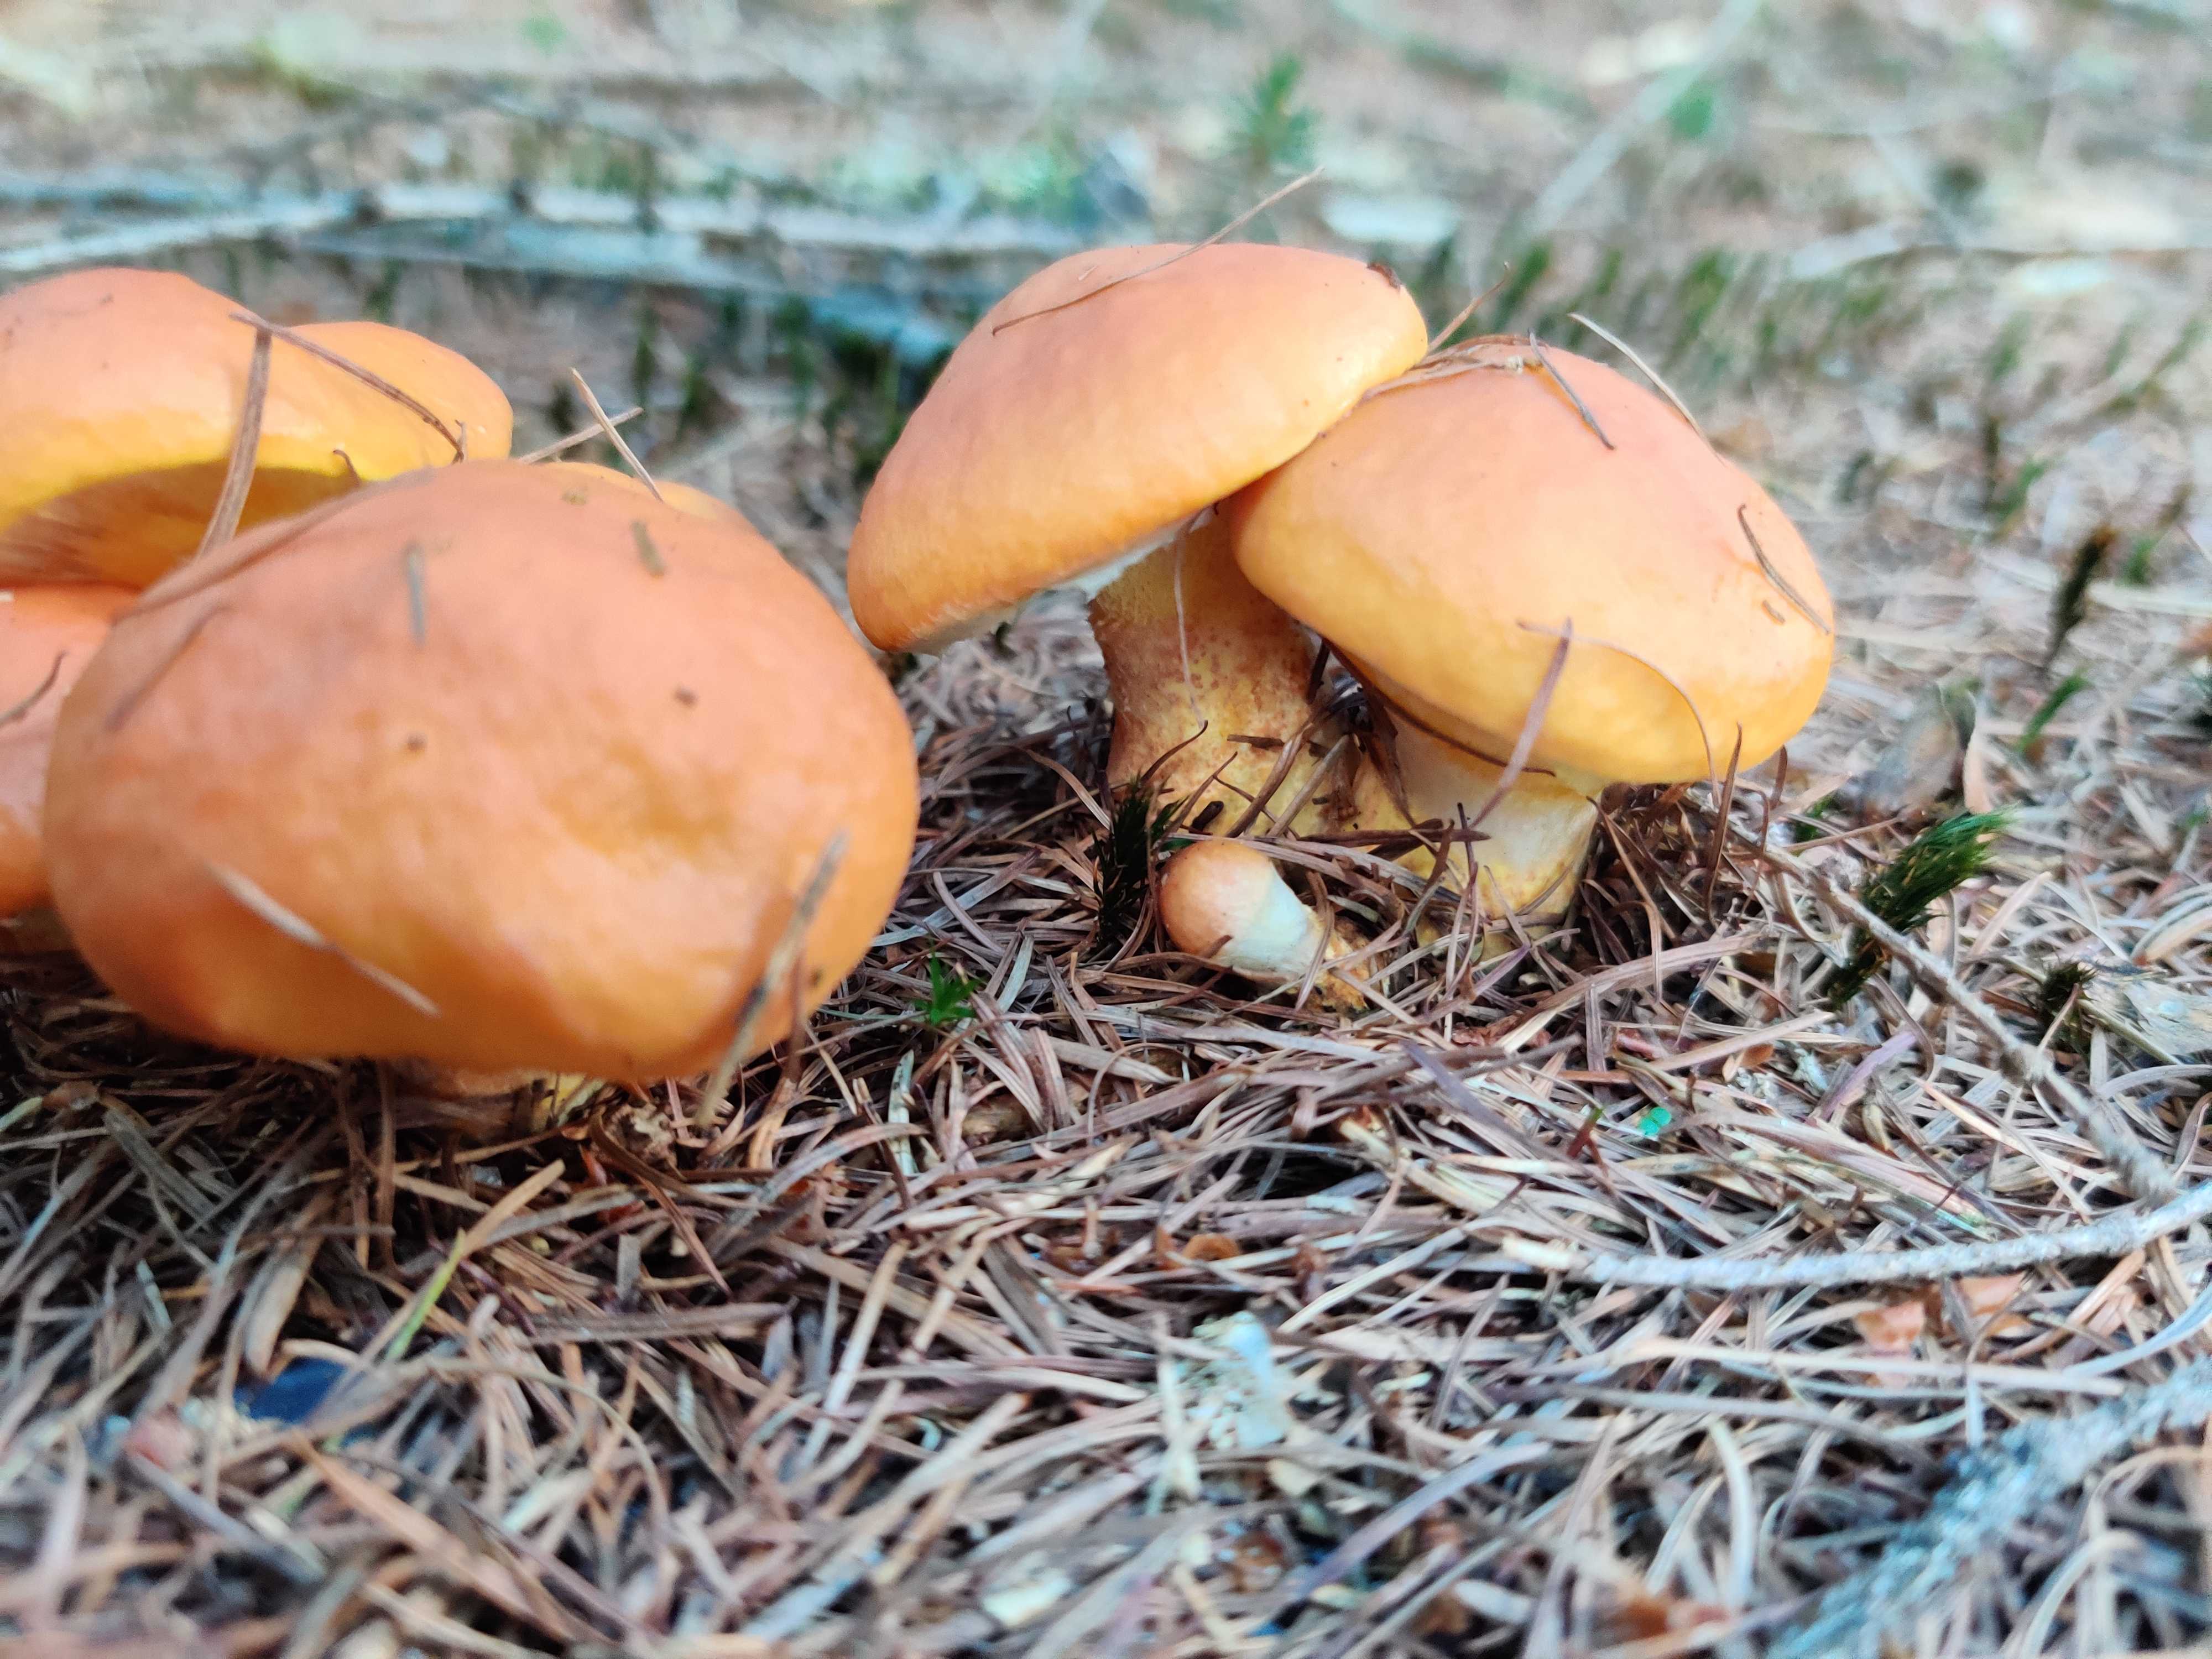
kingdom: Fungi
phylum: Basidiomycota
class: Agaricomycetes
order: Boletales
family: Suillaceae
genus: Suillus
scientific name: Suillus grevillei
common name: lærke-slimrørhat
